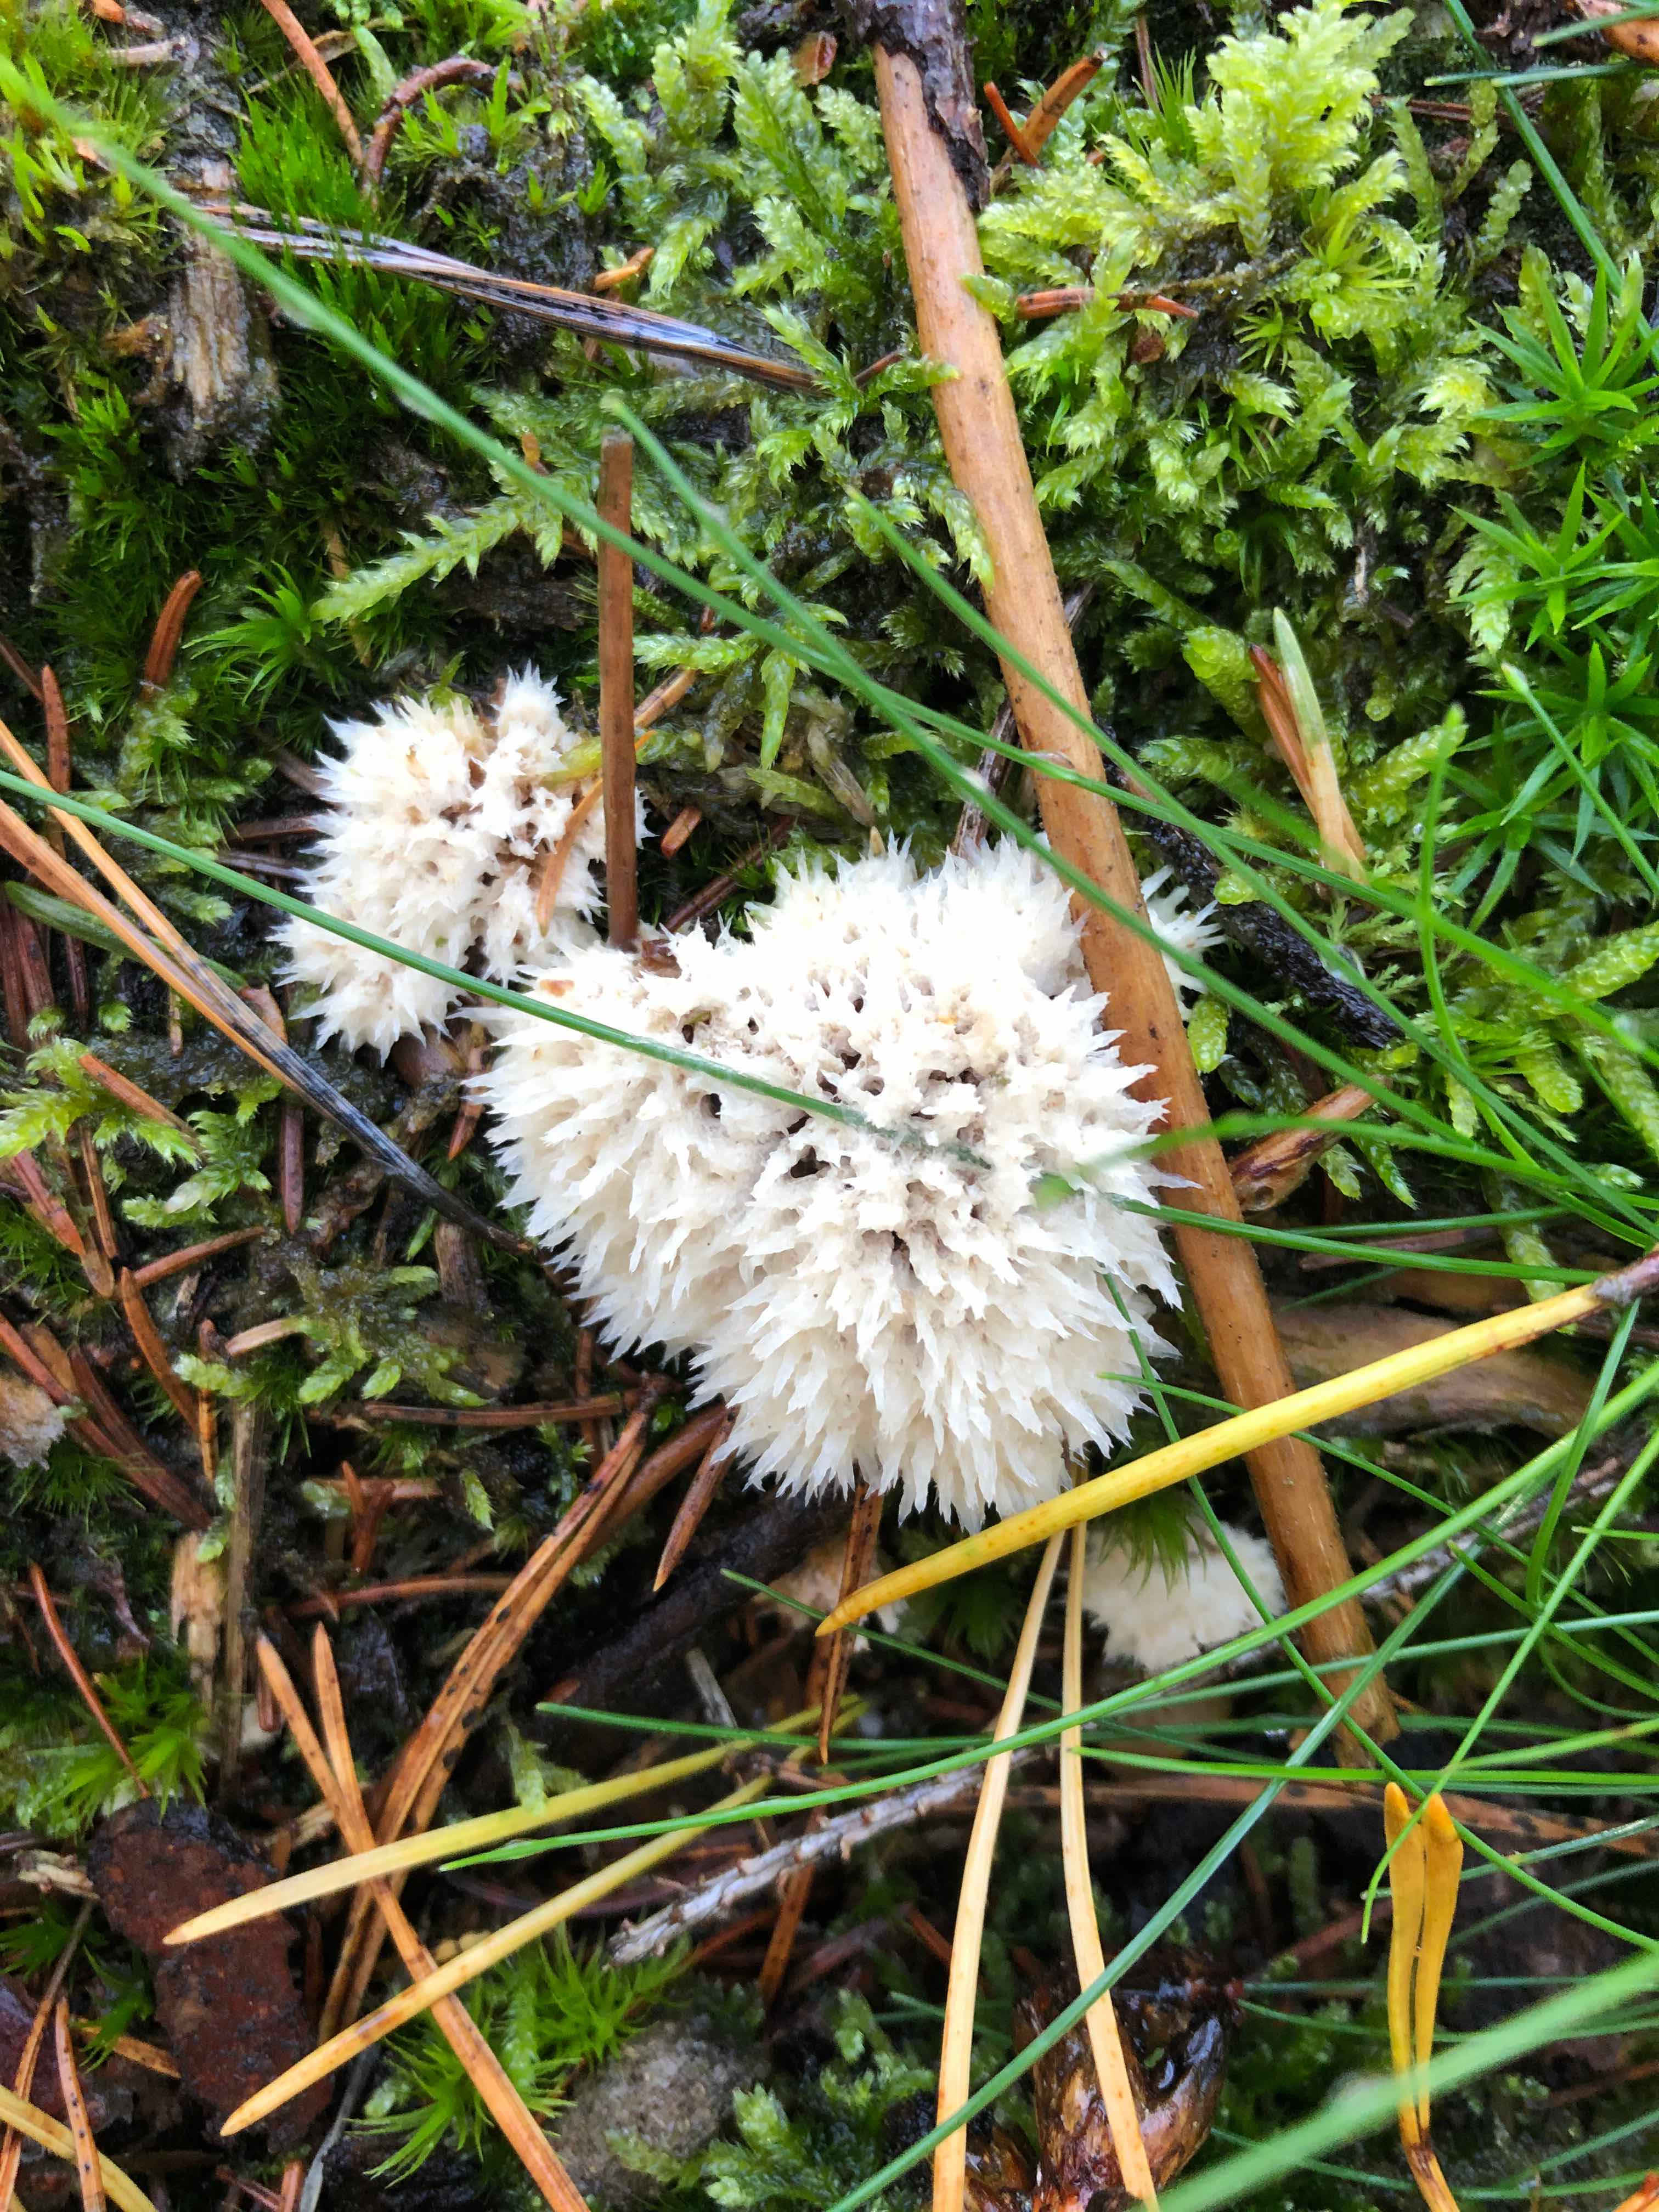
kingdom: Fungi
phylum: Basidiomycota
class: Agaricomycetes
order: Polyporales
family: Dacryobolaceae
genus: Postia
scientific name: Postia ptychogaster
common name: støvende kødporesvamp
